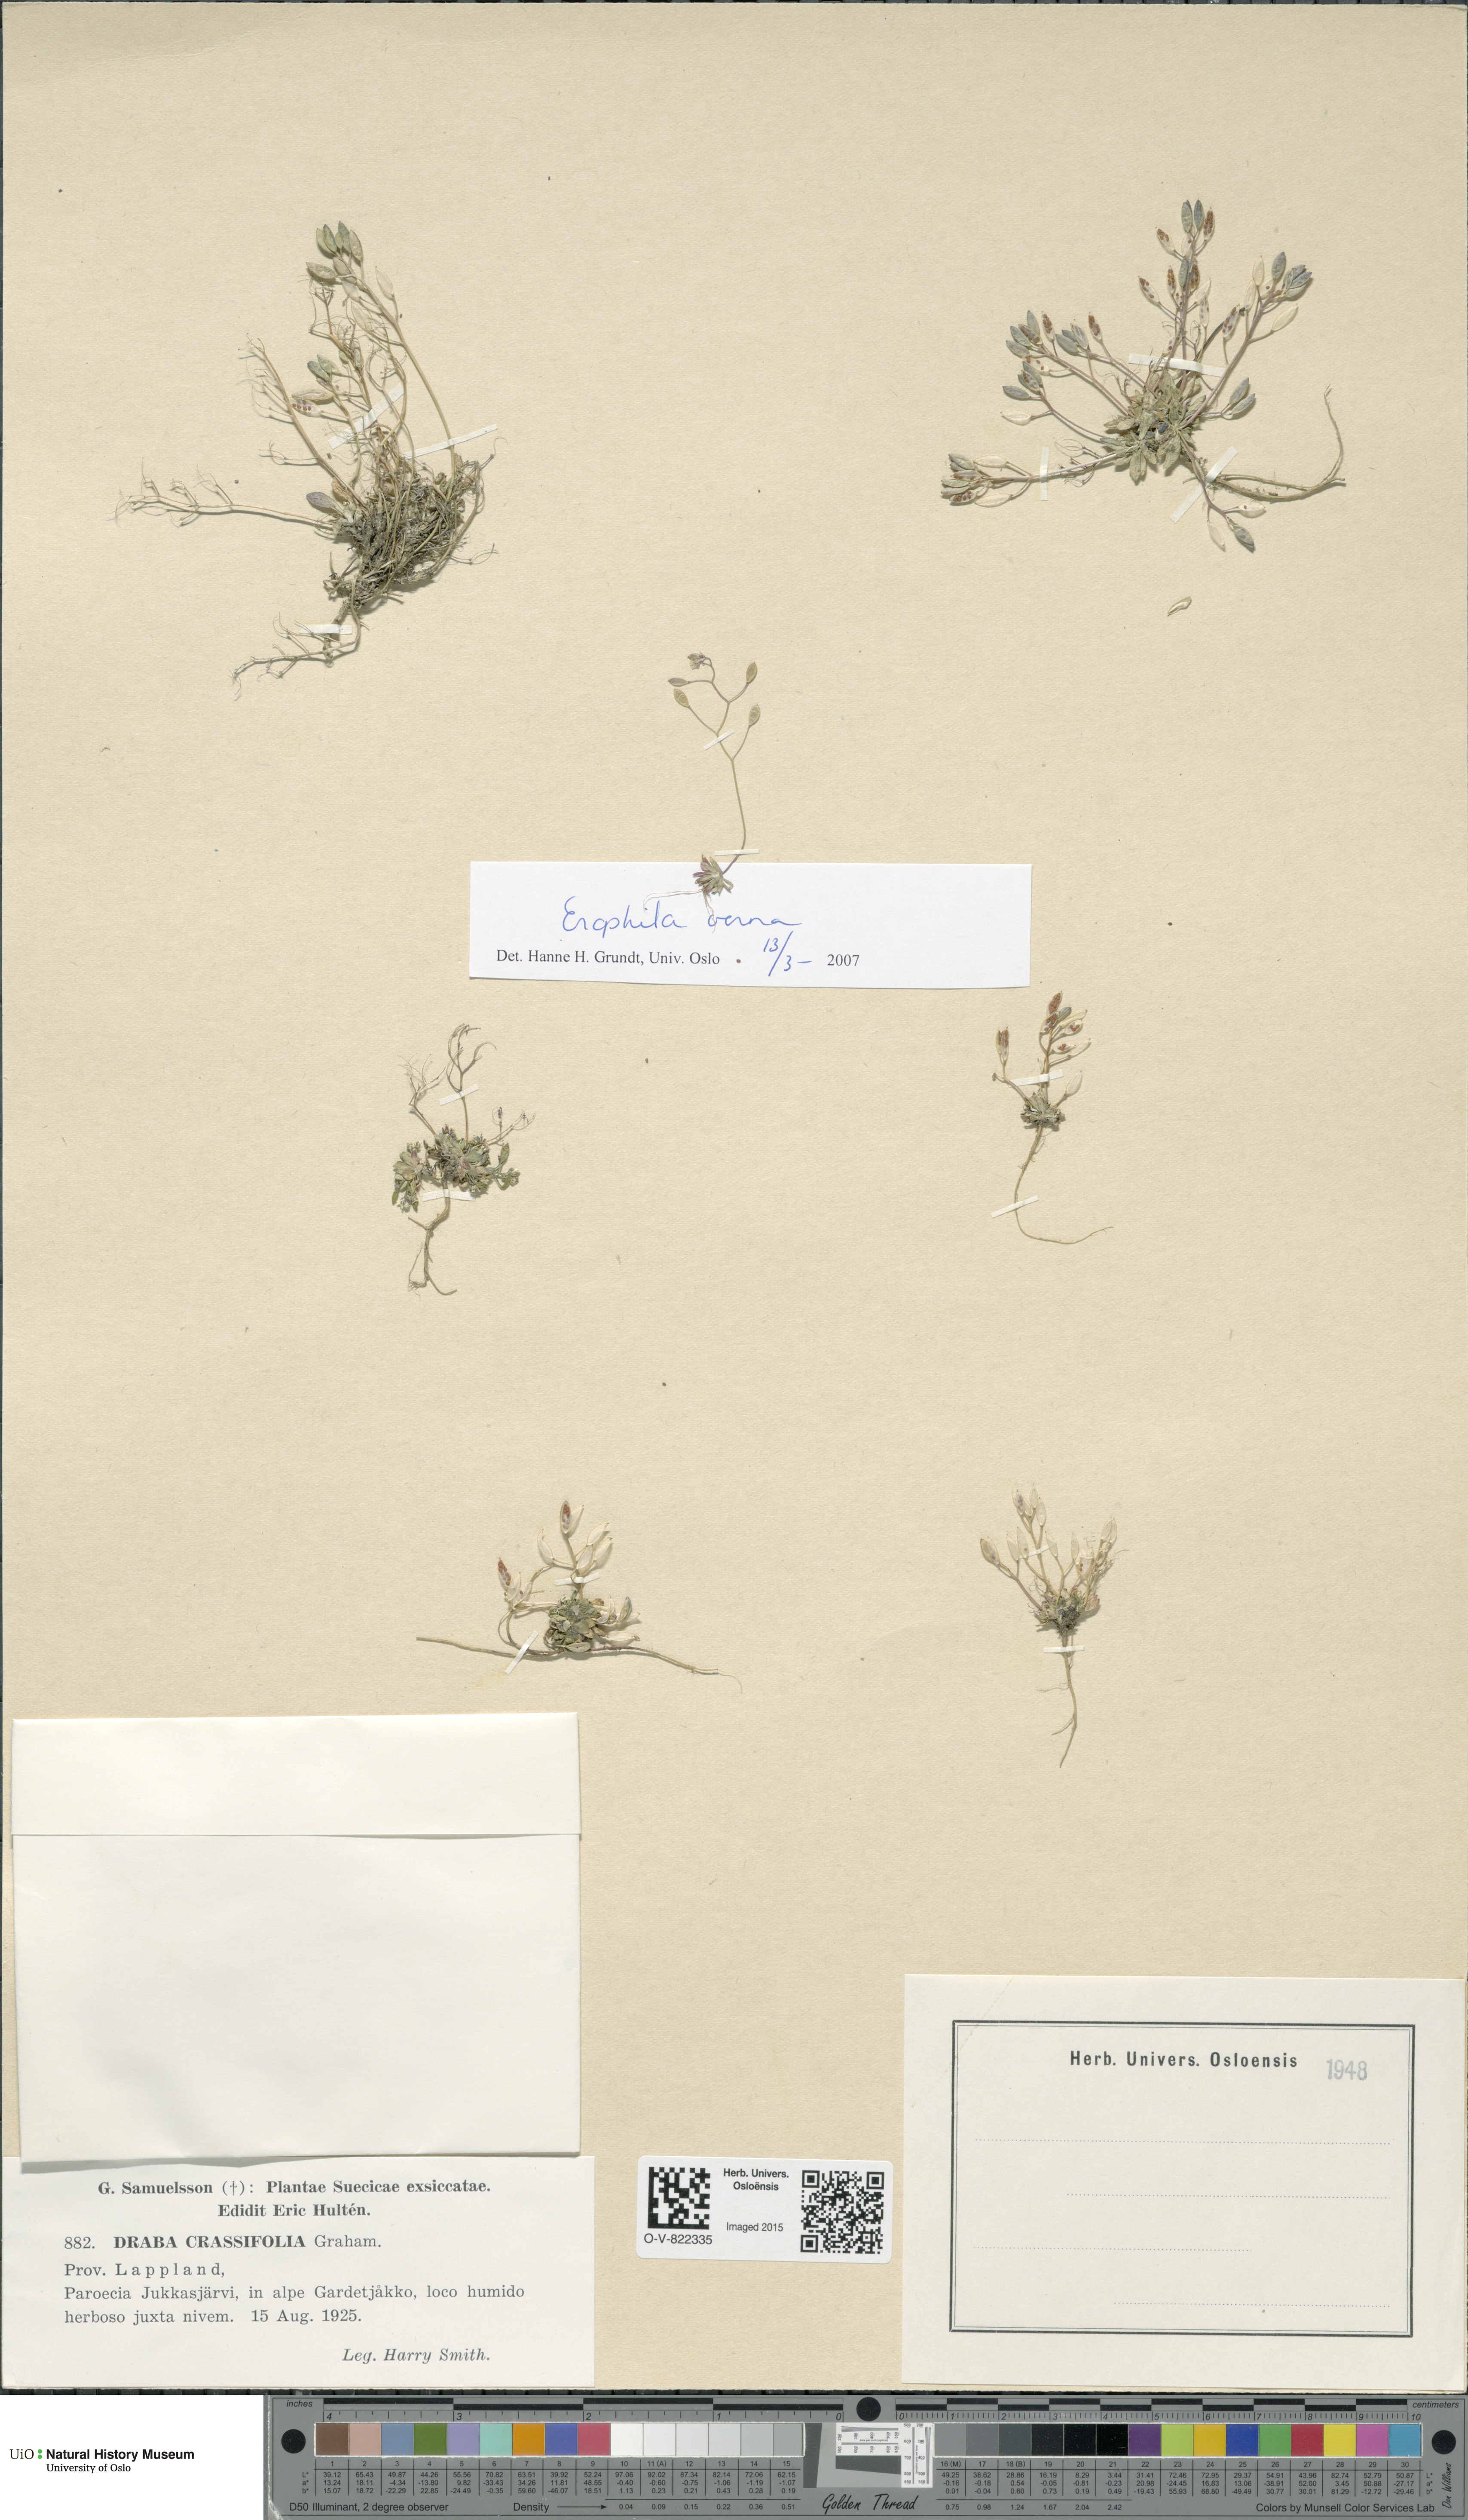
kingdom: Plantae
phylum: Tracheophyta
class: Magnoliopsida
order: Brassicales
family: Brassicaceae
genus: Draba
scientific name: Draba crassifolia
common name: Rocky mountain draba
